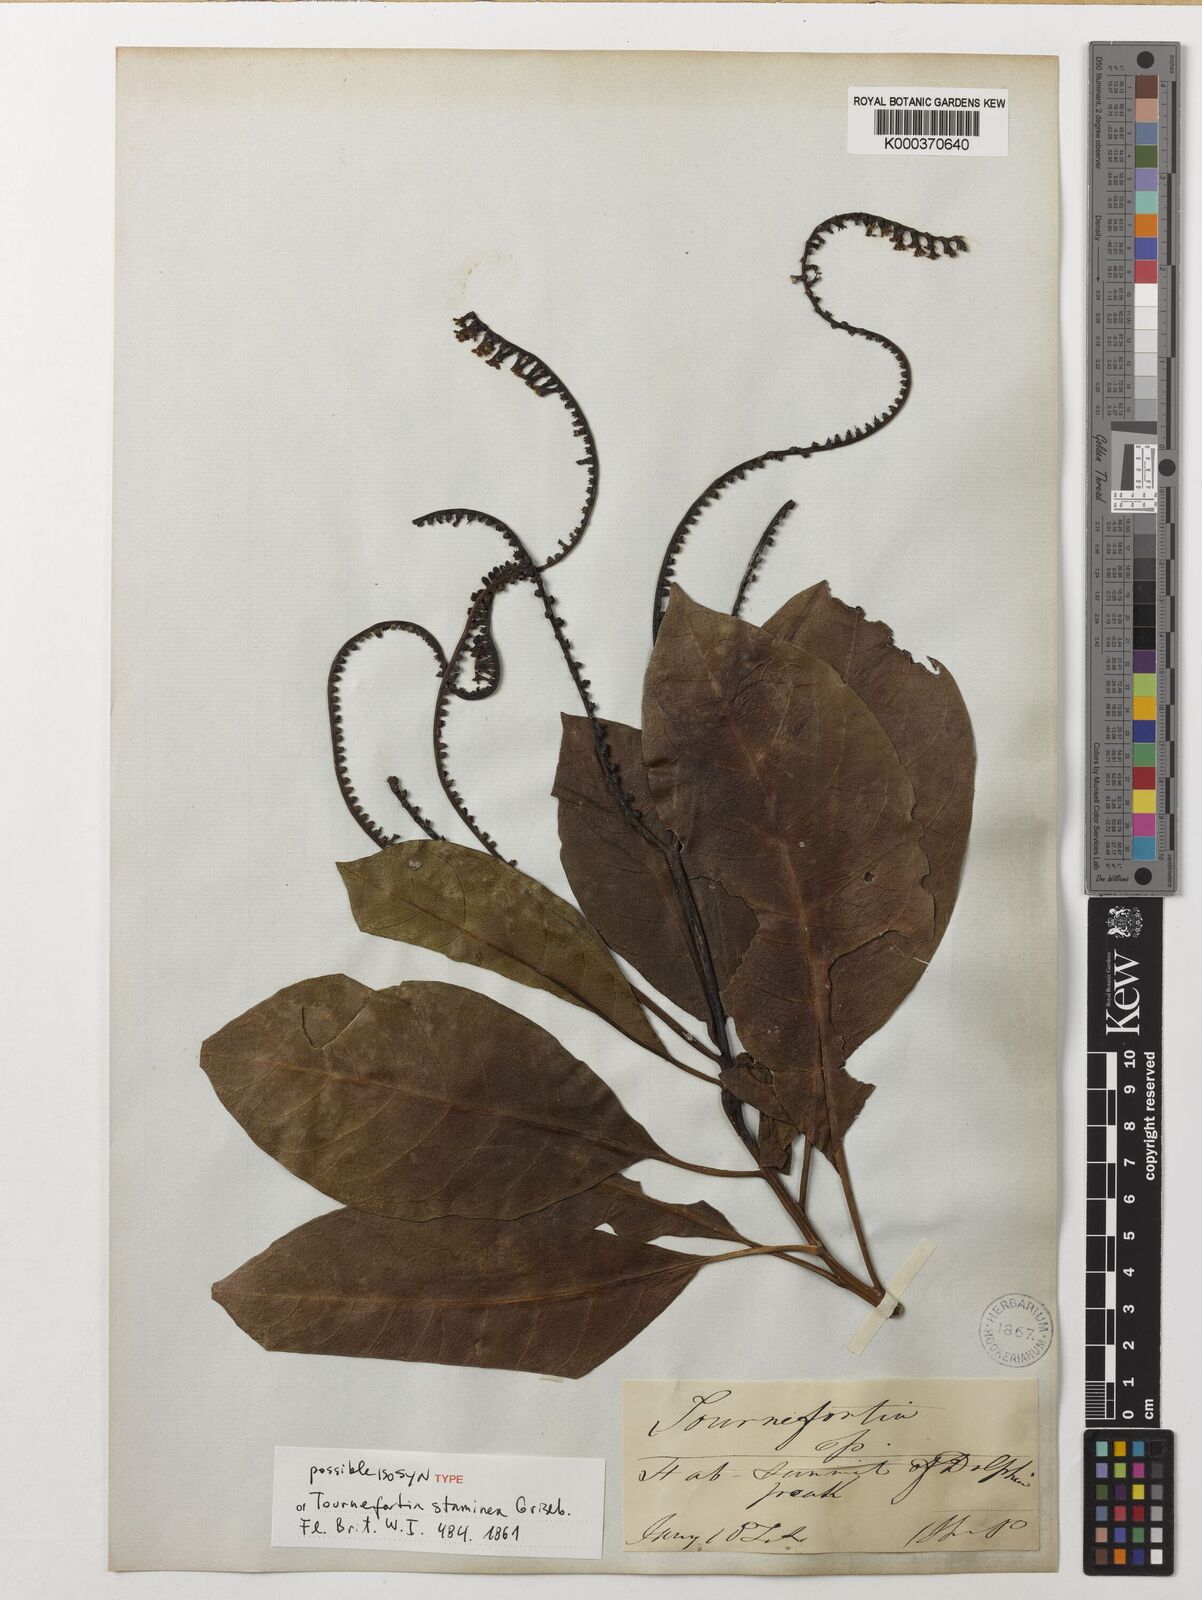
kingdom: Plantae
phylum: Tracheophyta
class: Magnoliopsida
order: Boraginales
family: Heliotropiaceae
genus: Heliotropium
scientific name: Heliotropium stamineum
